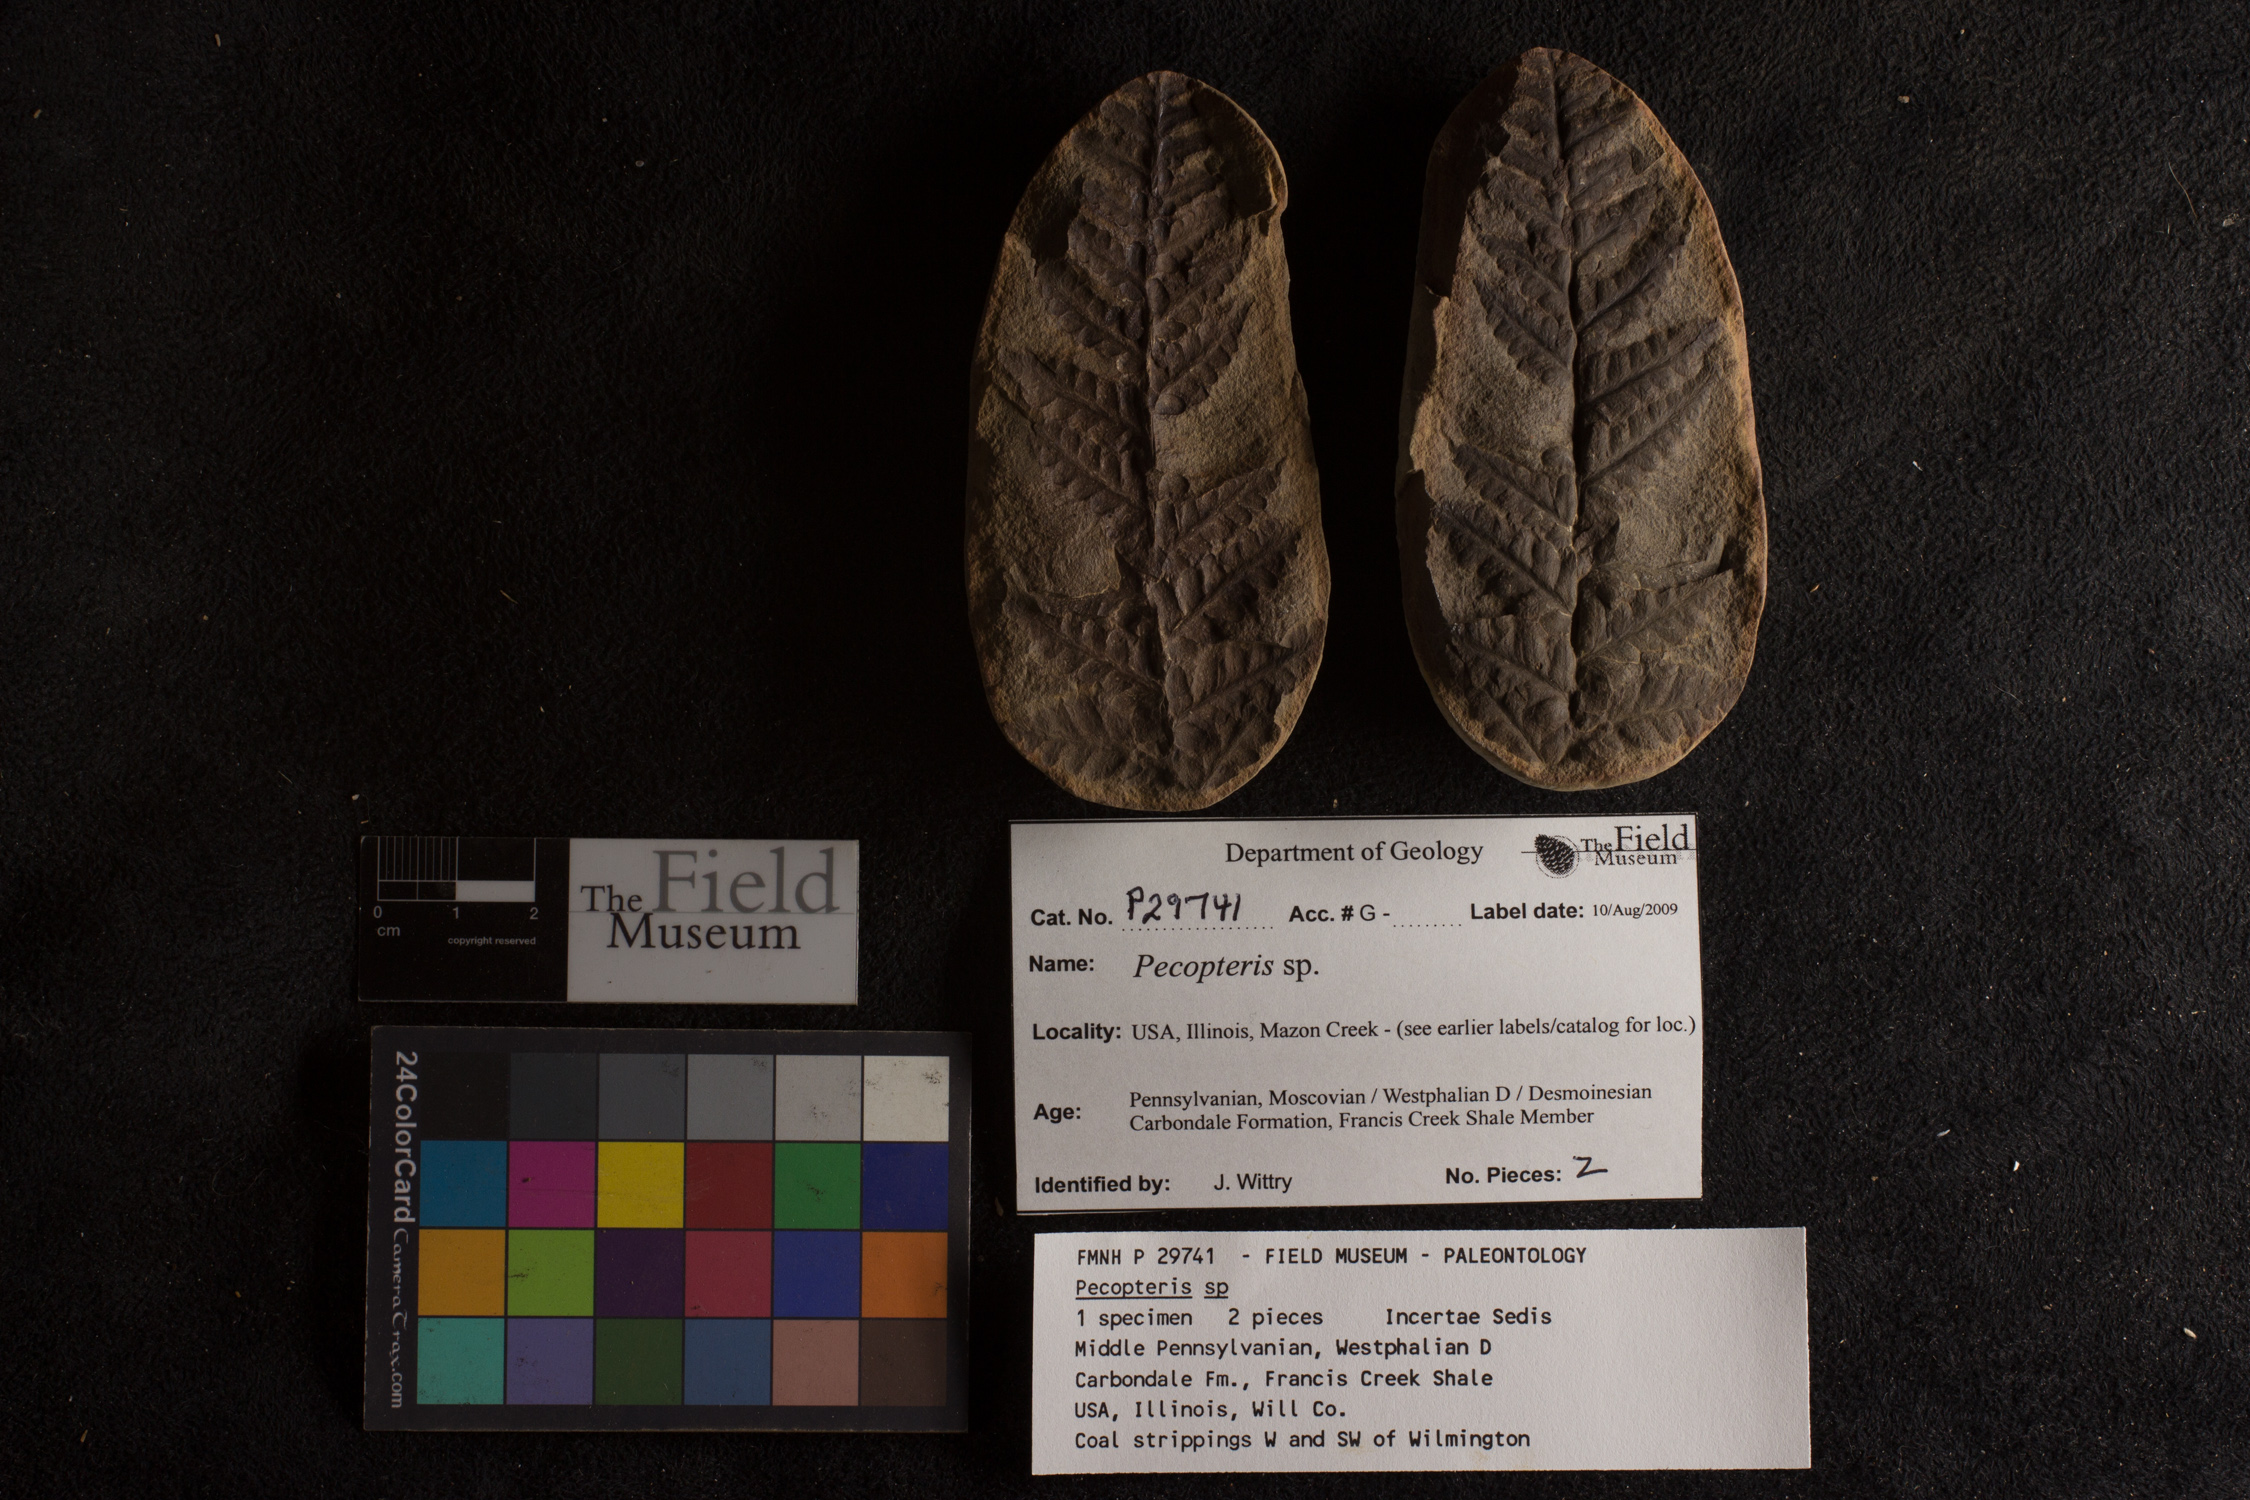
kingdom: Plantae
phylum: Tracheophyta
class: Polypodiopsida
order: Marattiales
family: Asterothecaceae
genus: Pecopteris
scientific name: Pecopteris
